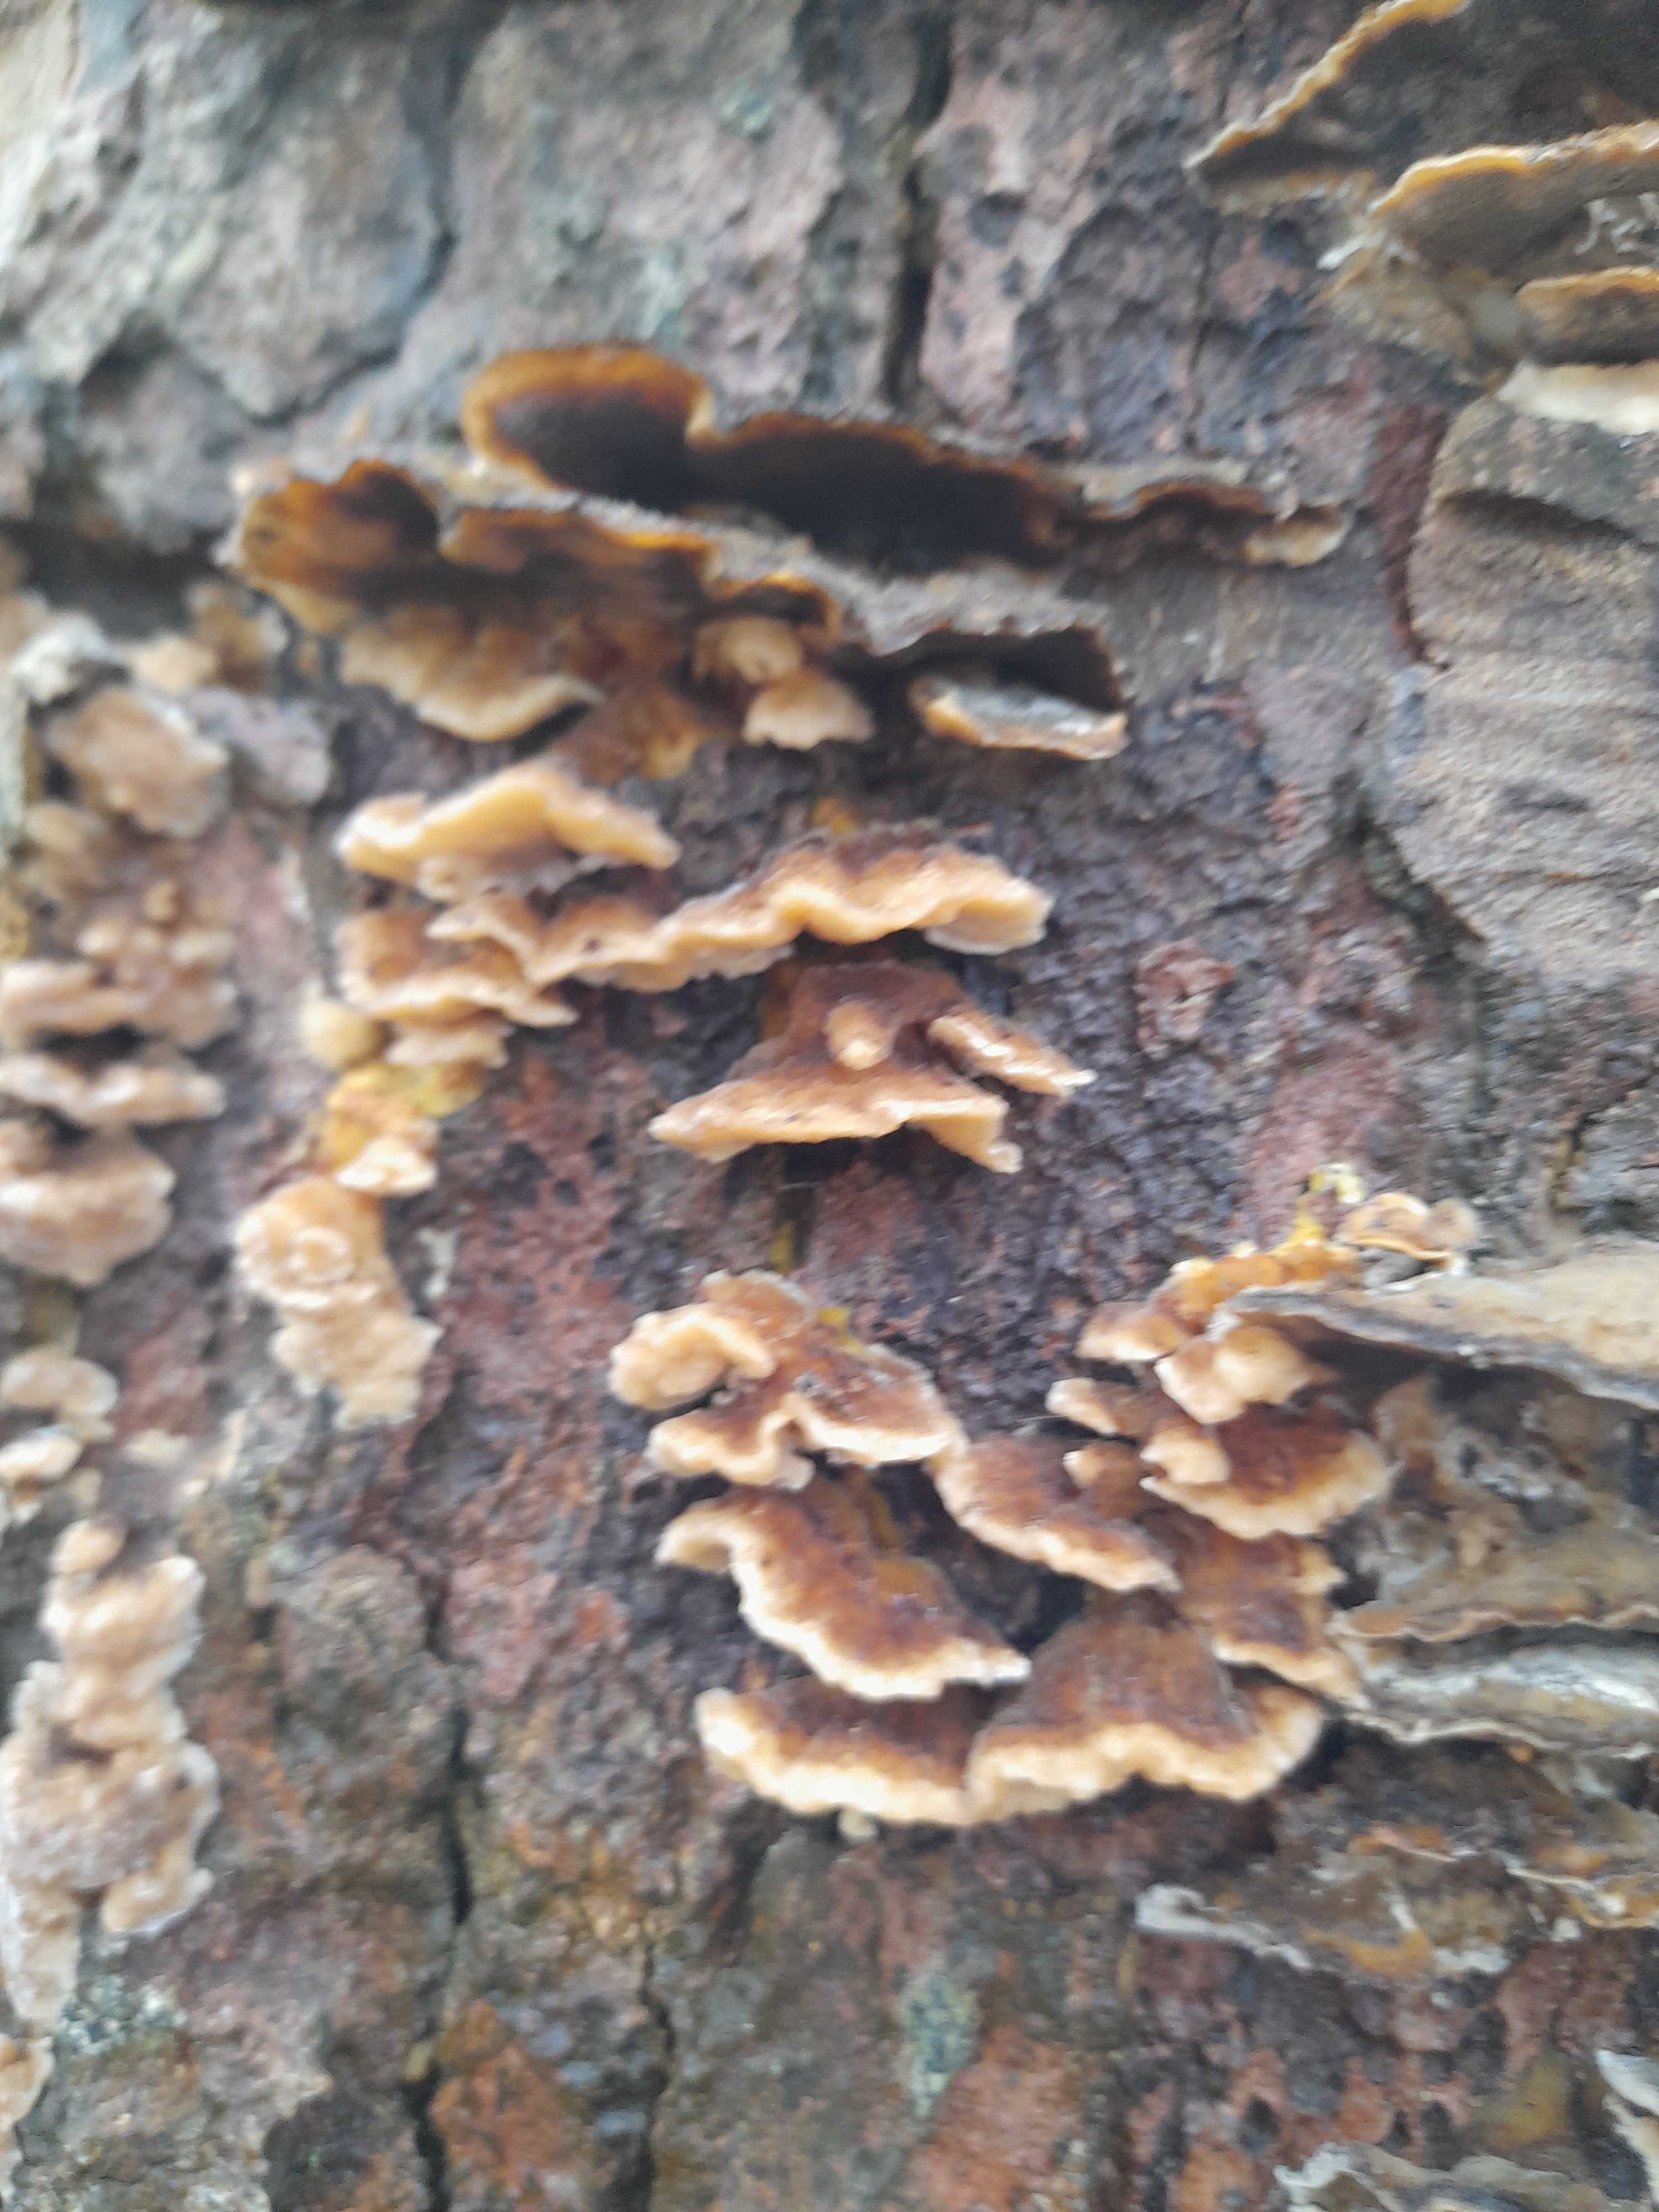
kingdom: Fungi
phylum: Basidiomycota
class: Agaricomycetes
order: Polyporales
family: Polyporaceae
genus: Trametes
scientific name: Trametes versicolor
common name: broget læderporesvamp
